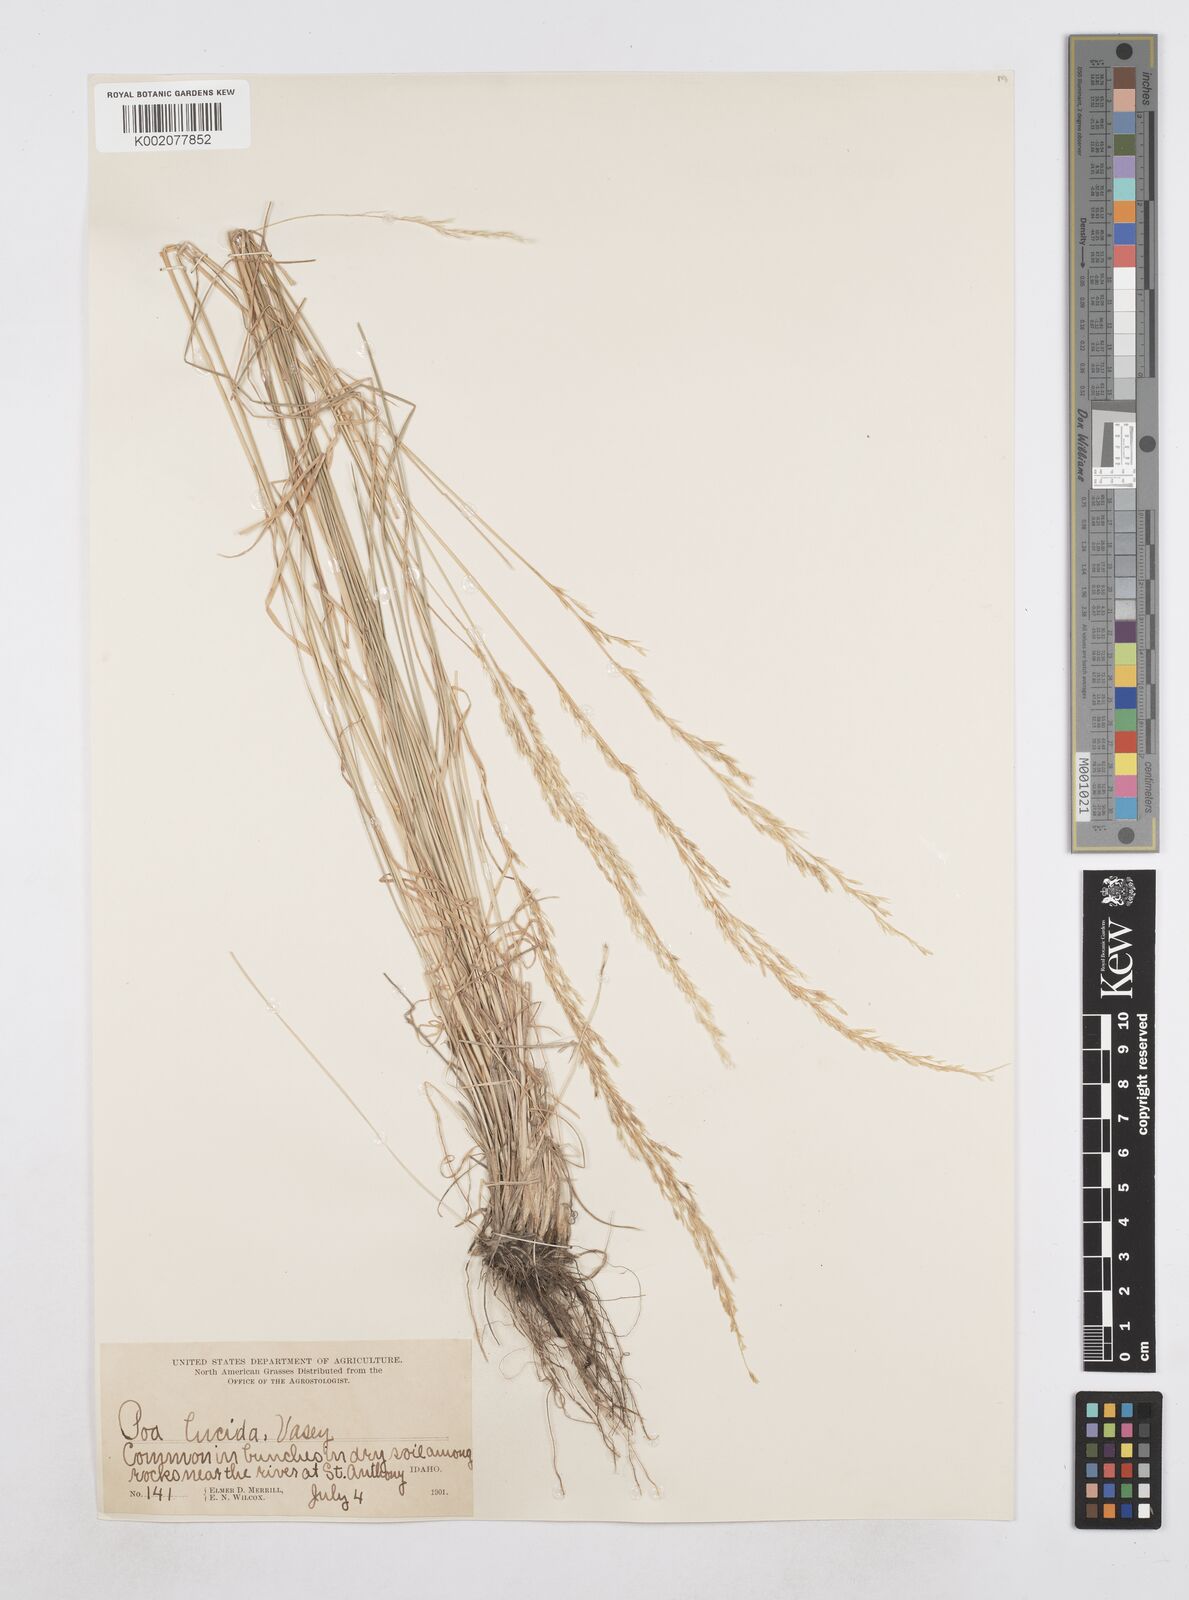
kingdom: Plantae
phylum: Tracheophyta
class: Liliopsida
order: Poales
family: Poaceae
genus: Poa
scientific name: Poa secunda
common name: Sandberg bluegrass
